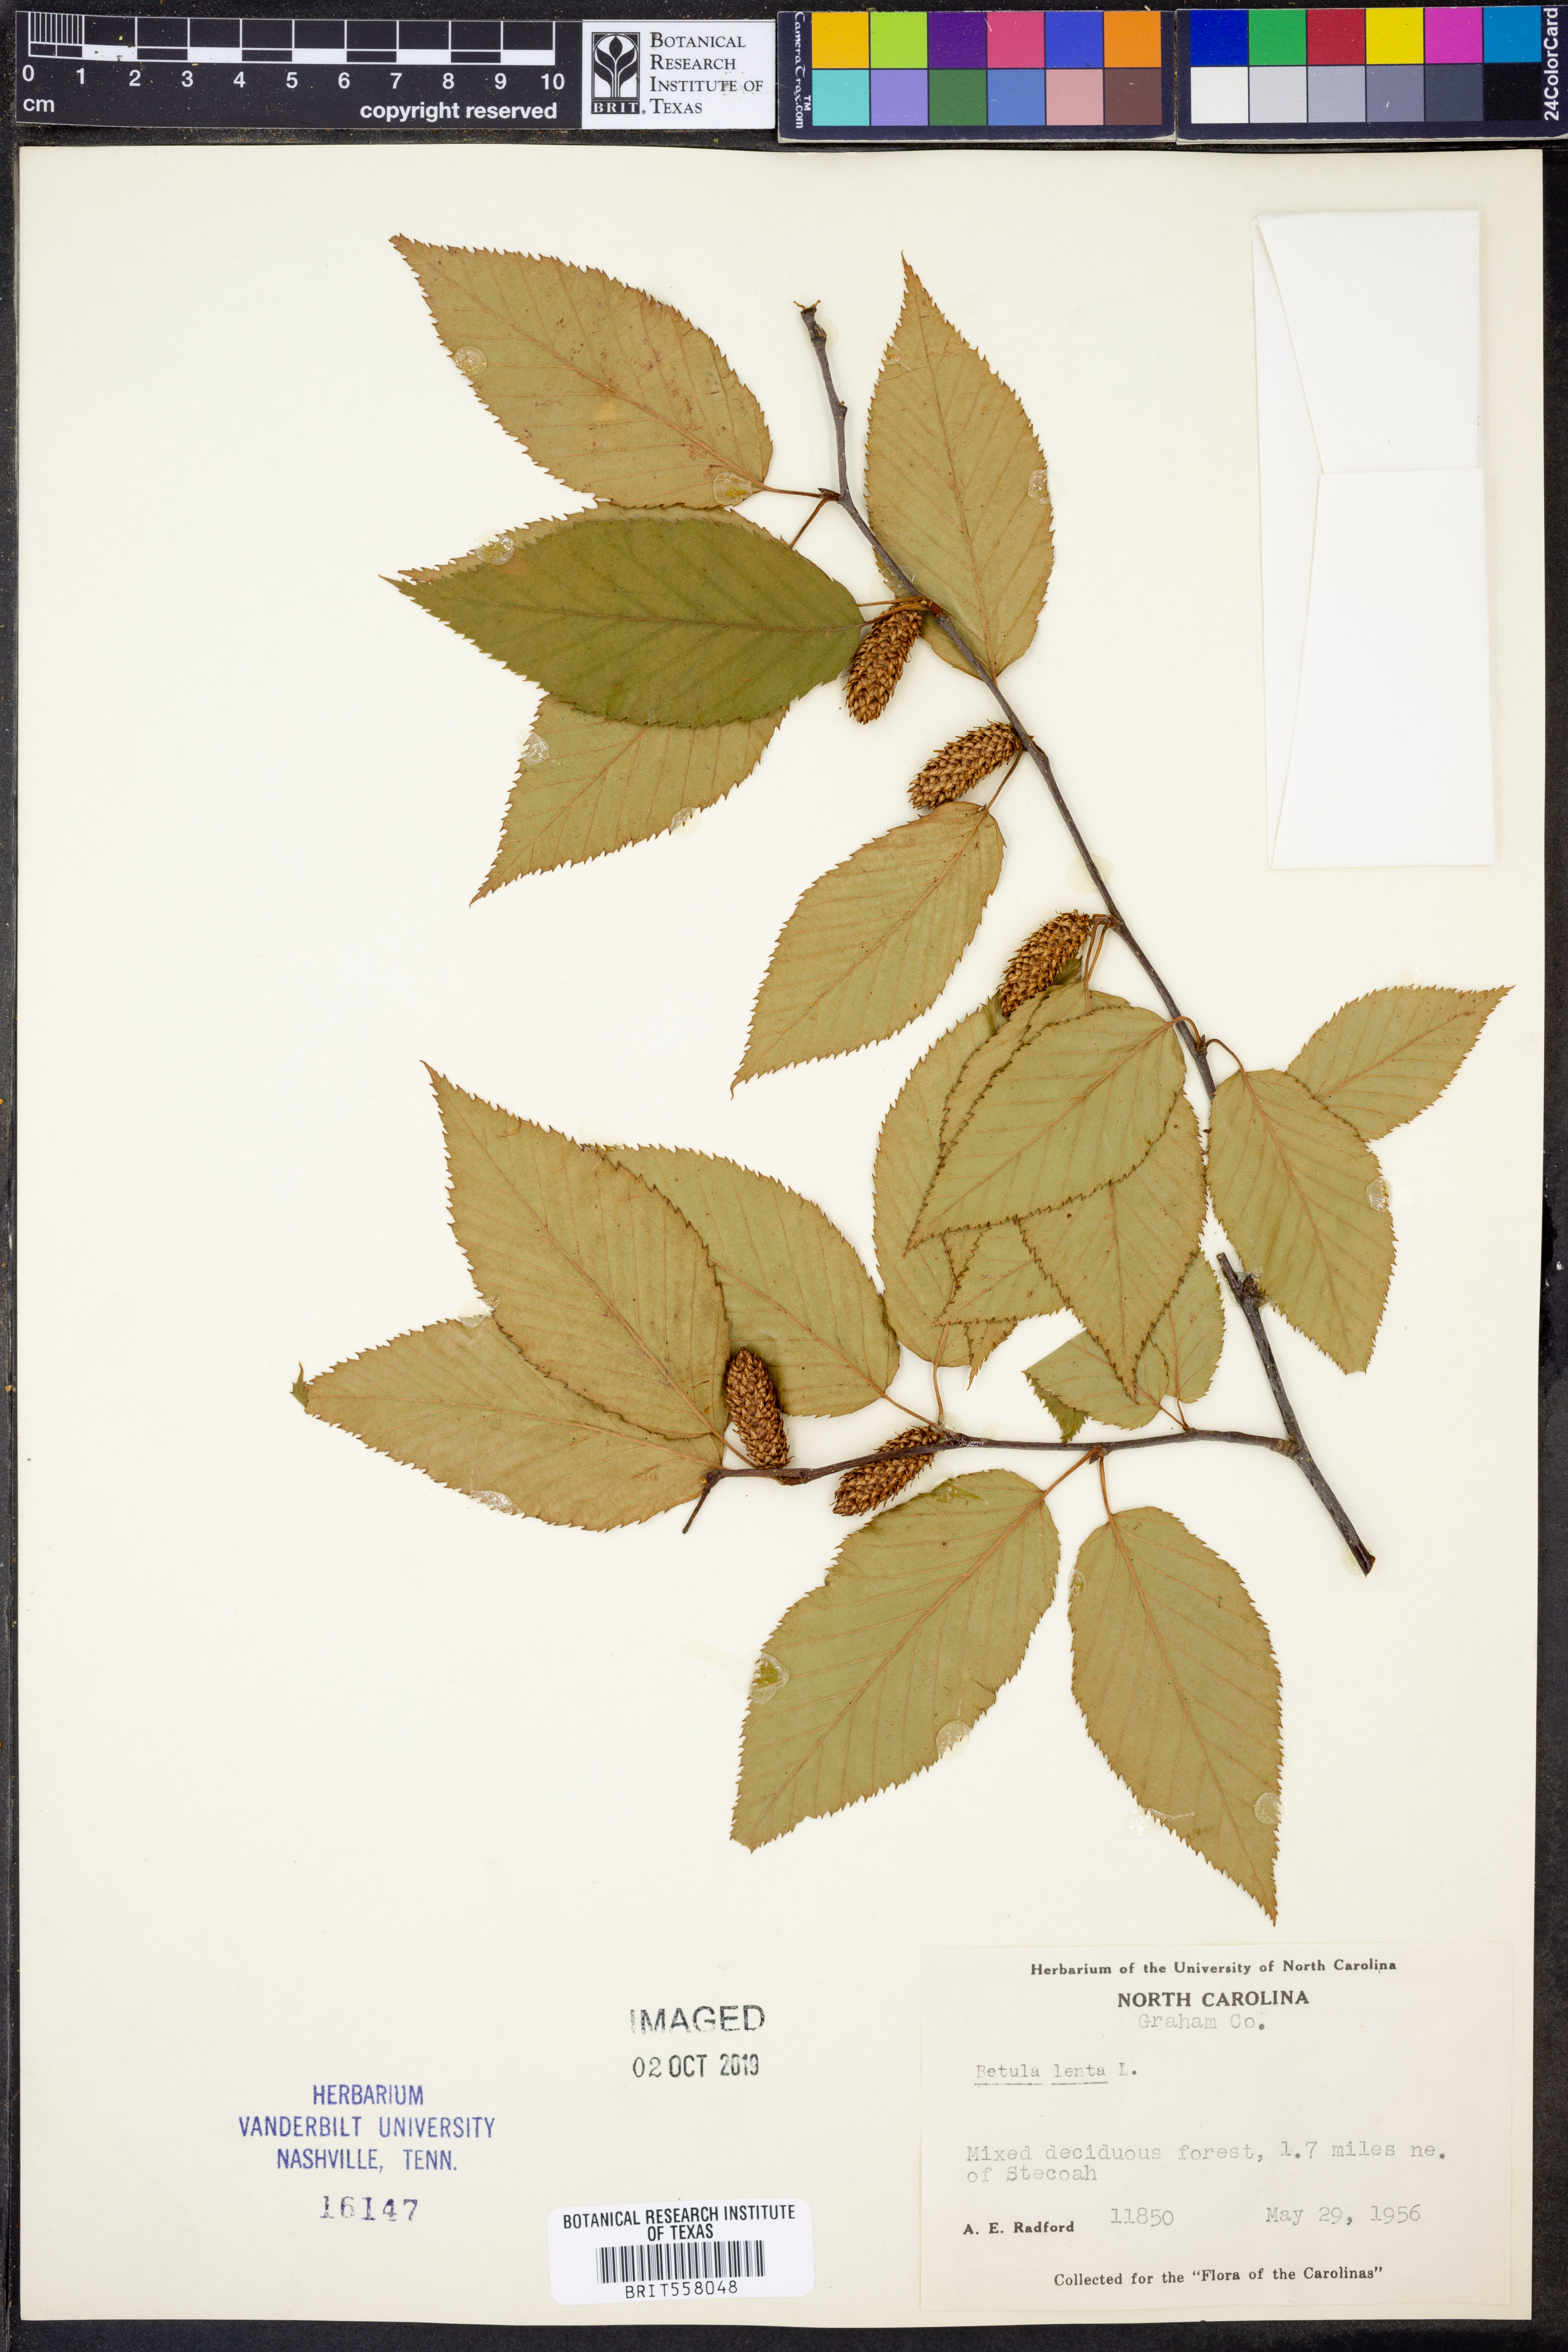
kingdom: Plantae
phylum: Tracheophyta
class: Magnoliopsida
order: Fagales
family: Betulaceae
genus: Betula
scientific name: Betula lenta
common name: Black birch
